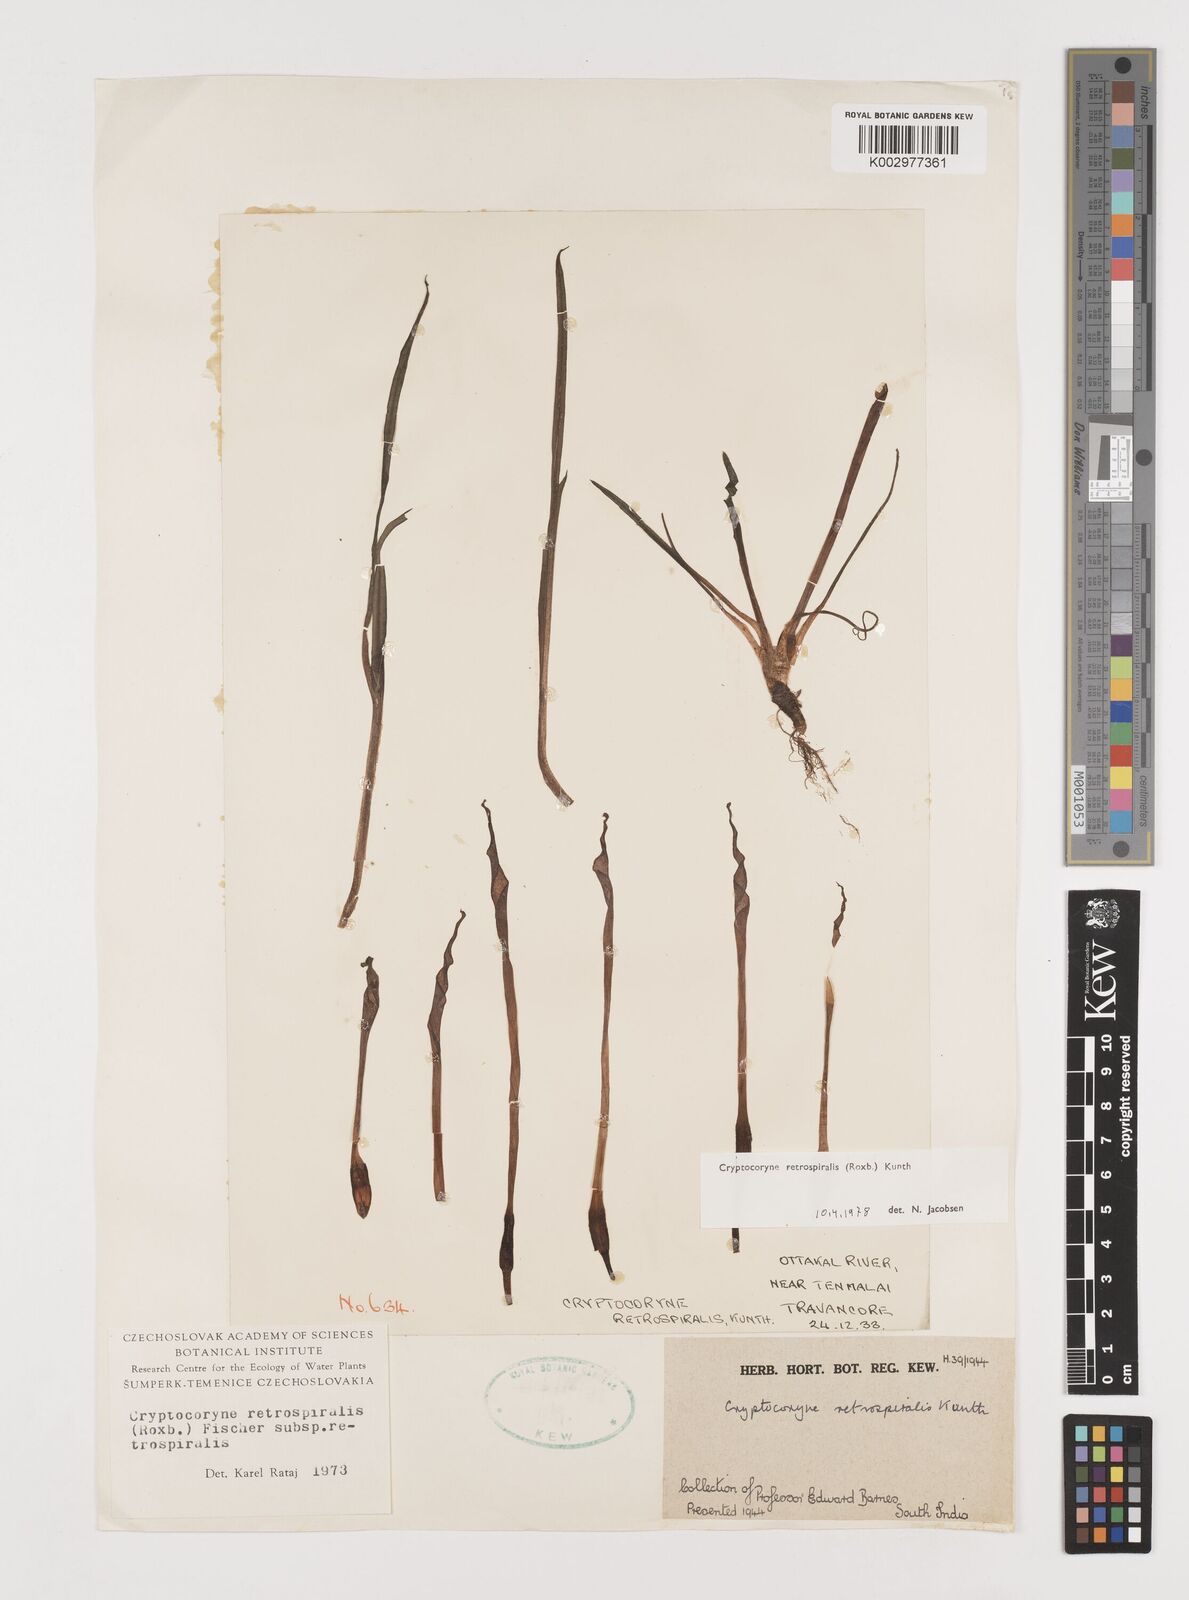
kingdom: Plantae
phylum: Tracheophyta
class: Liliopsida
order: Alismatales
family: Araceae
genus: Cryptocoryne
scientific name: Cryptocoryne retrospiralis
